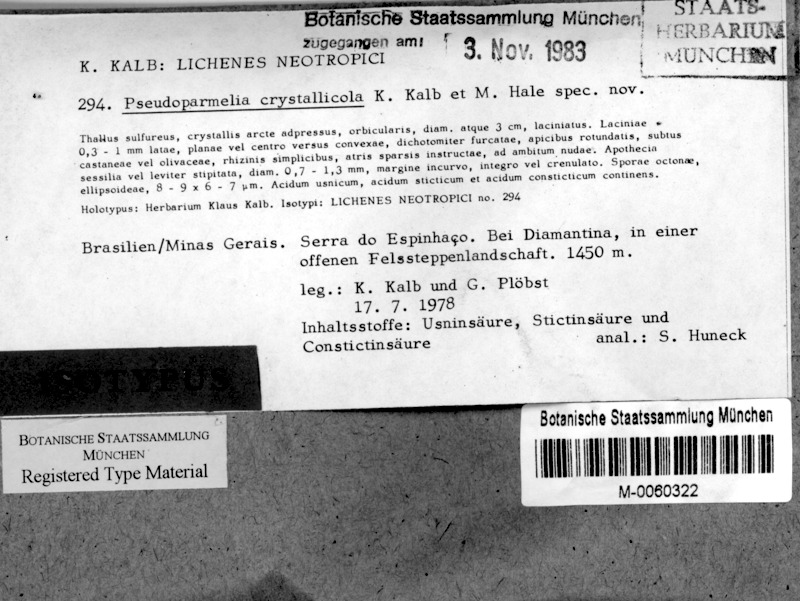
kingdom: Fungi
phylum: Ascomycota
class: Lecanoromycetes
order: Lecanorales
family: Parmeliaceae
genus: Xanthoparmelia
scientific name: Xanthoparmelia crystallicola
